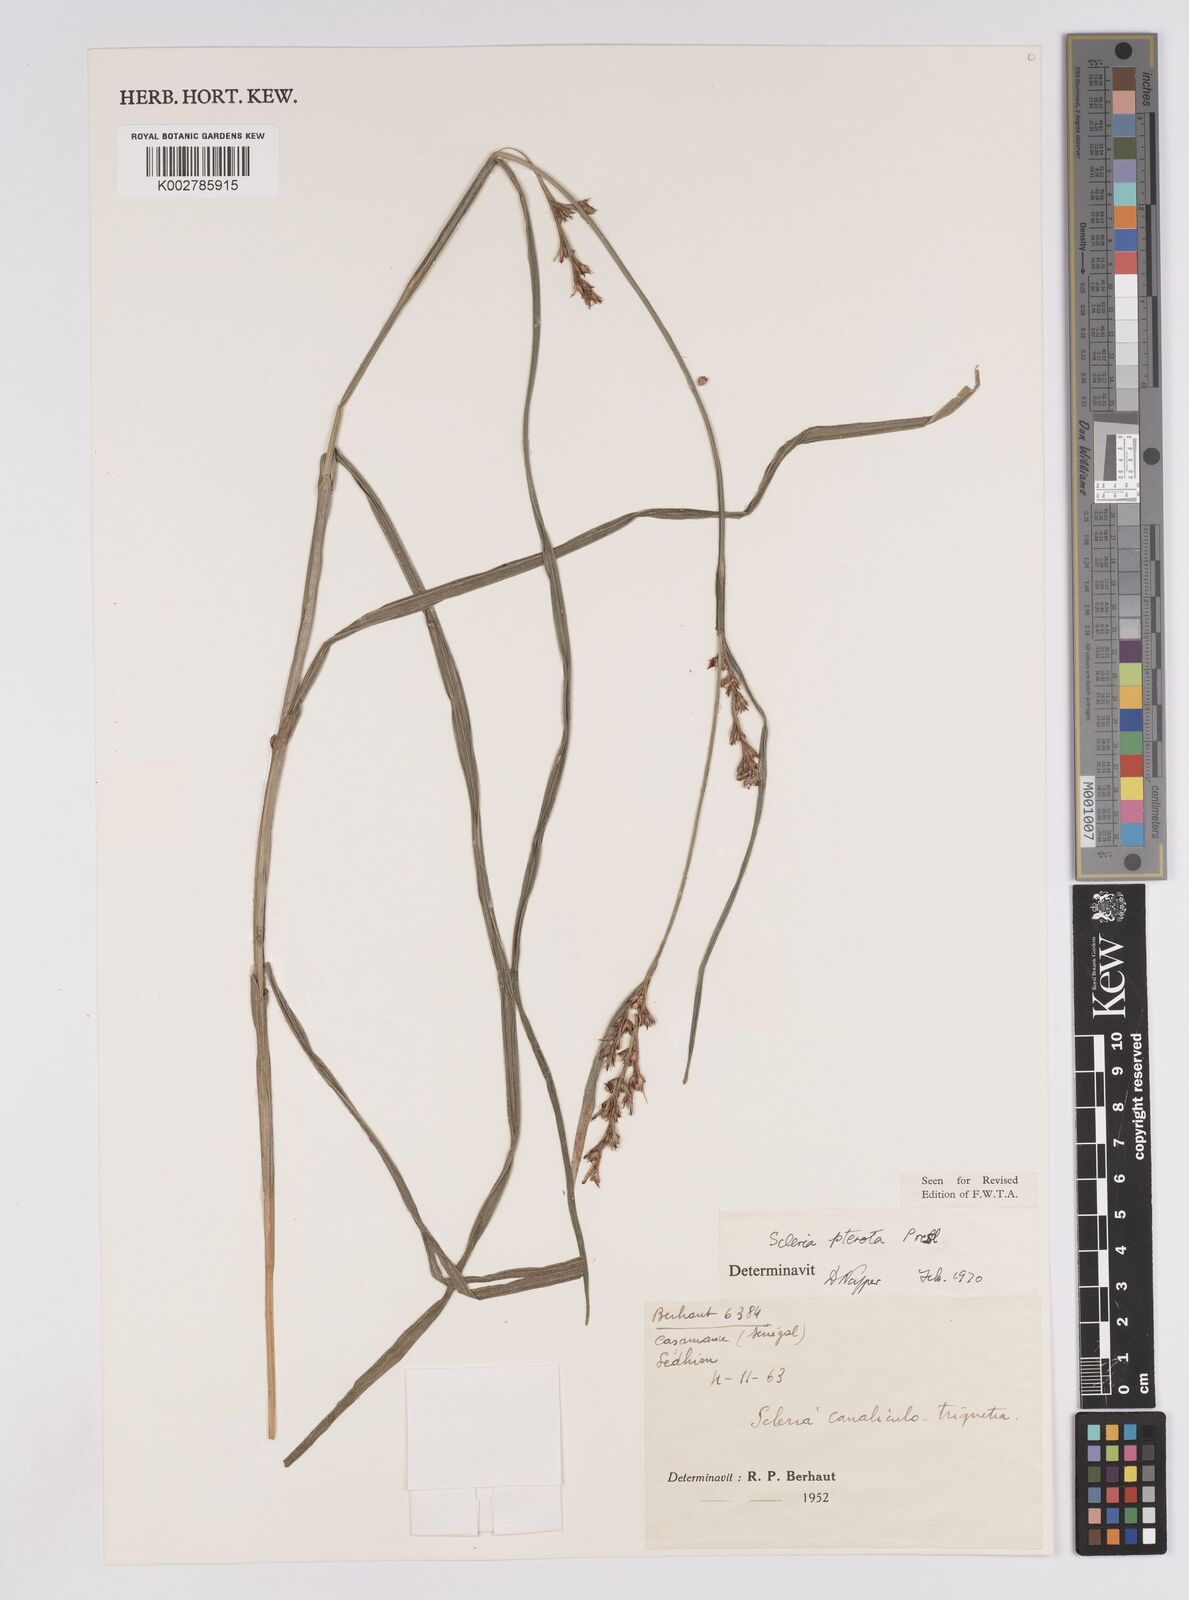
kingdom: Plantae
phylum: Tracheophyta
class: Liliopsida
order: Poales
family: Cyperaceae
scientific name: Cyperaceae
